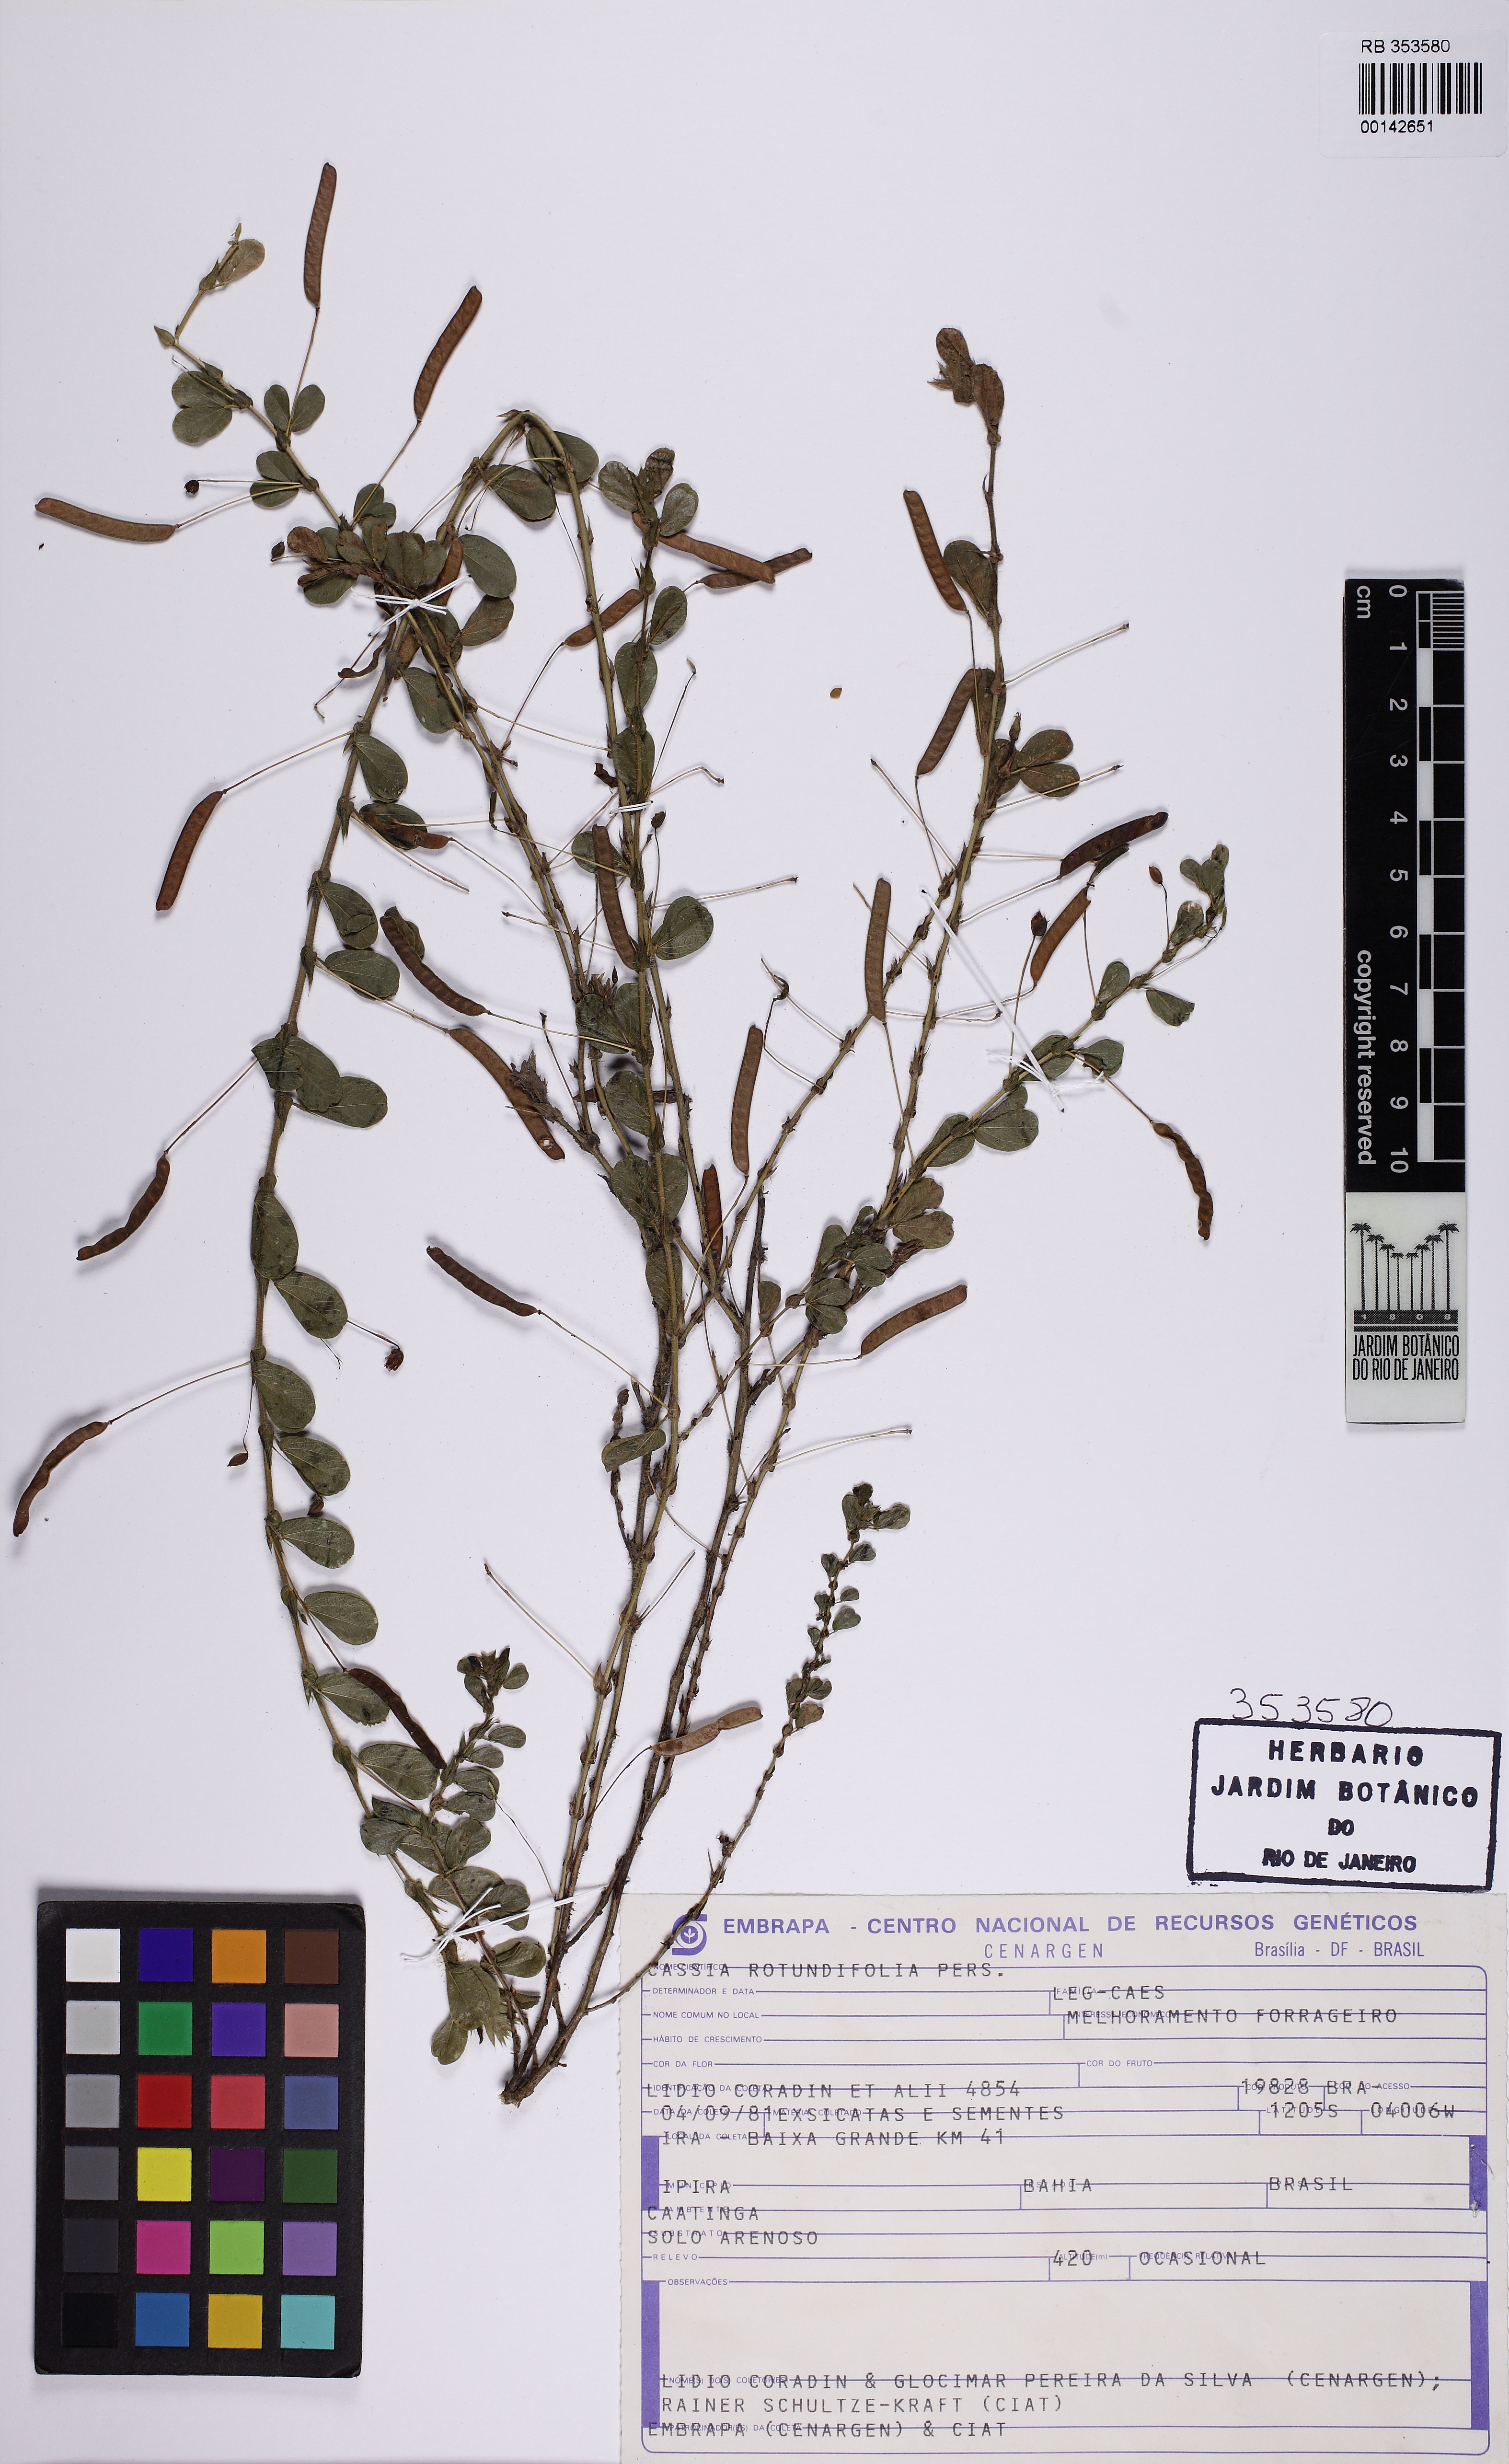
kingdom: Plantae
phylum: Tracheophyta
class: Magnoliopsida
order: Fabales
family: Fabaceae
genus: Chamaecrista
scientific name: Chamaecrista rotundifolia
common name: Round-leaf cassia
